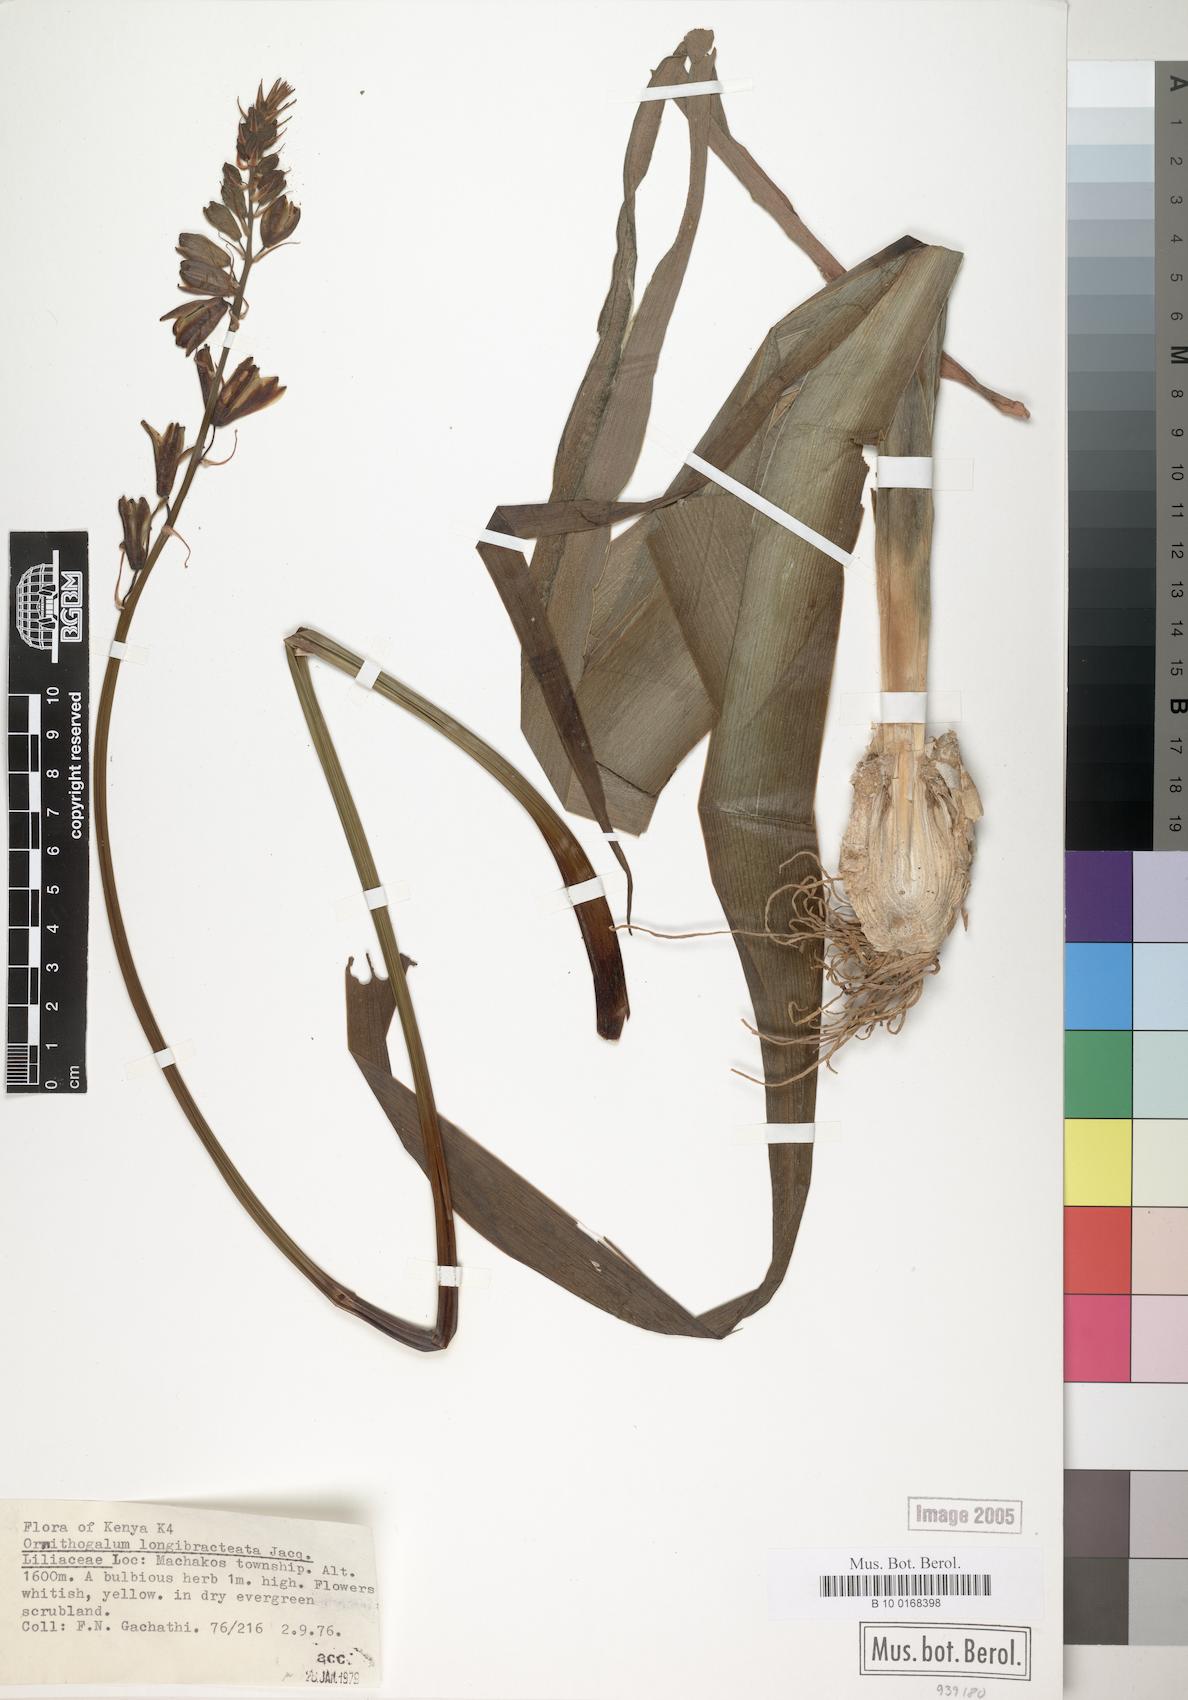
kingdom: Plantae
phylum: Tracheophyta
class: Liliopsida
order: Asparagales
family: Asparagaceae
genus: Albuca
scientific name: Albuca bracteata
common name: Sea-onion
